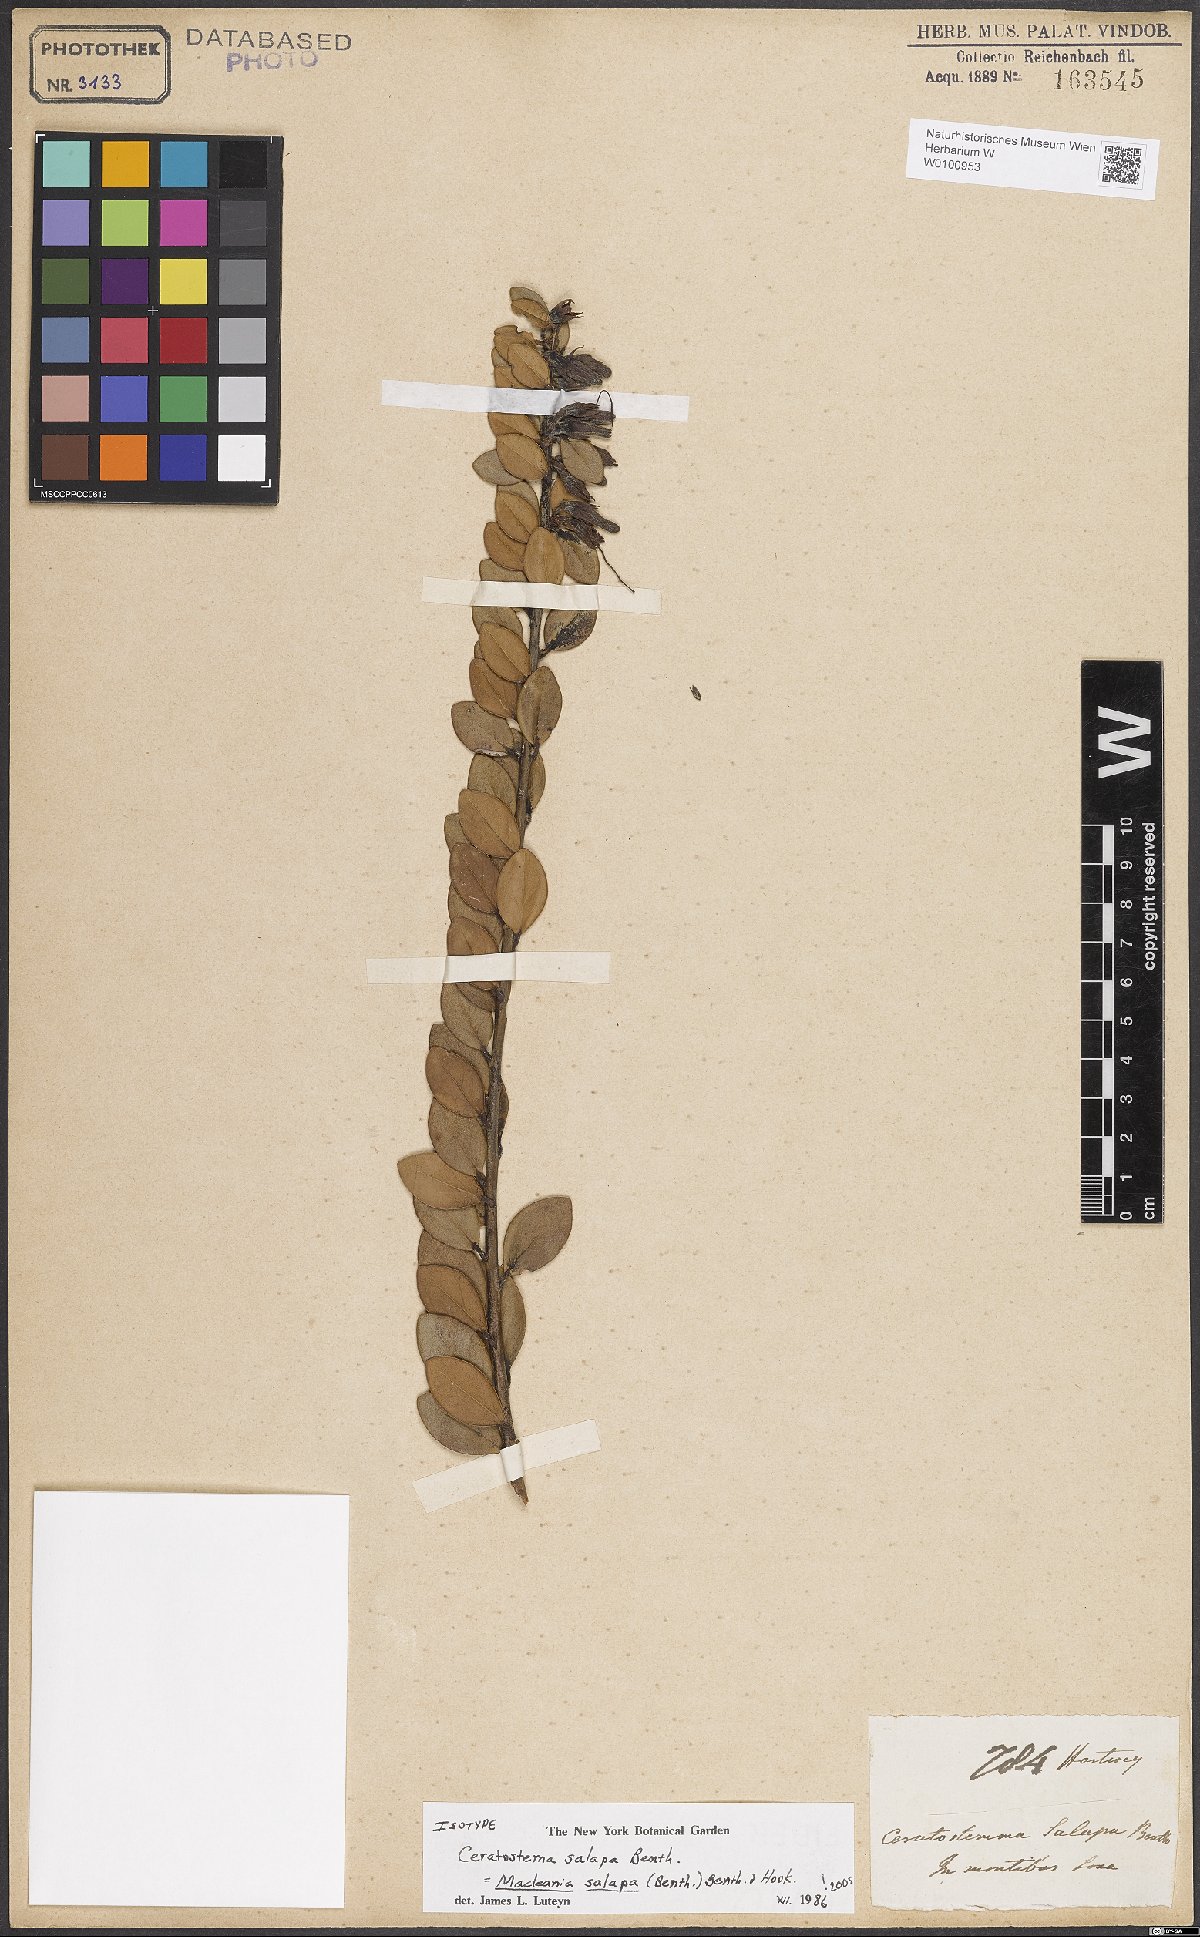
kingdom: Plantae
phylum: Tracheophyta
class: Magnoliopsida
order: Ericales
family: Ericaceae
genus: Macleania
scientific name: Macleania salapa
